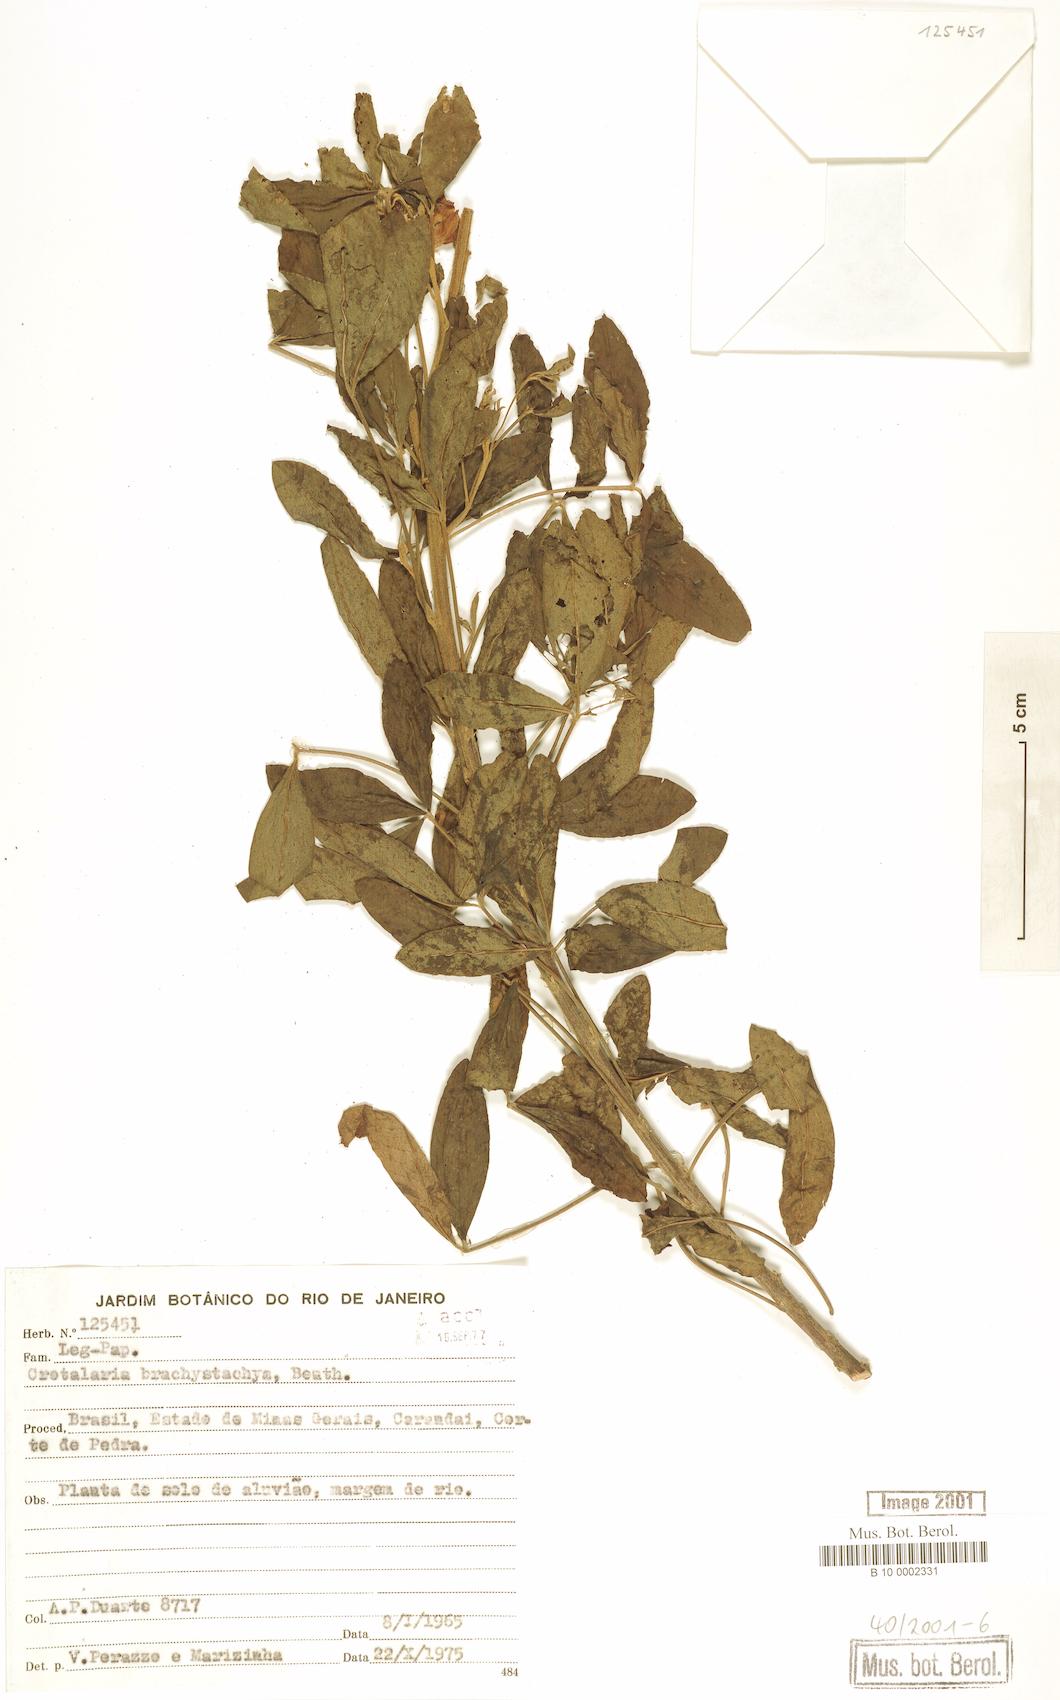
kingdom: Plantae
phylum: Tracheophyta
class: Magnoliopsida
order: Fabales
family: Fabaceae
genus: Crotalaria
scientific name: Crotalaria micans
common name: Caracas rattlebox
